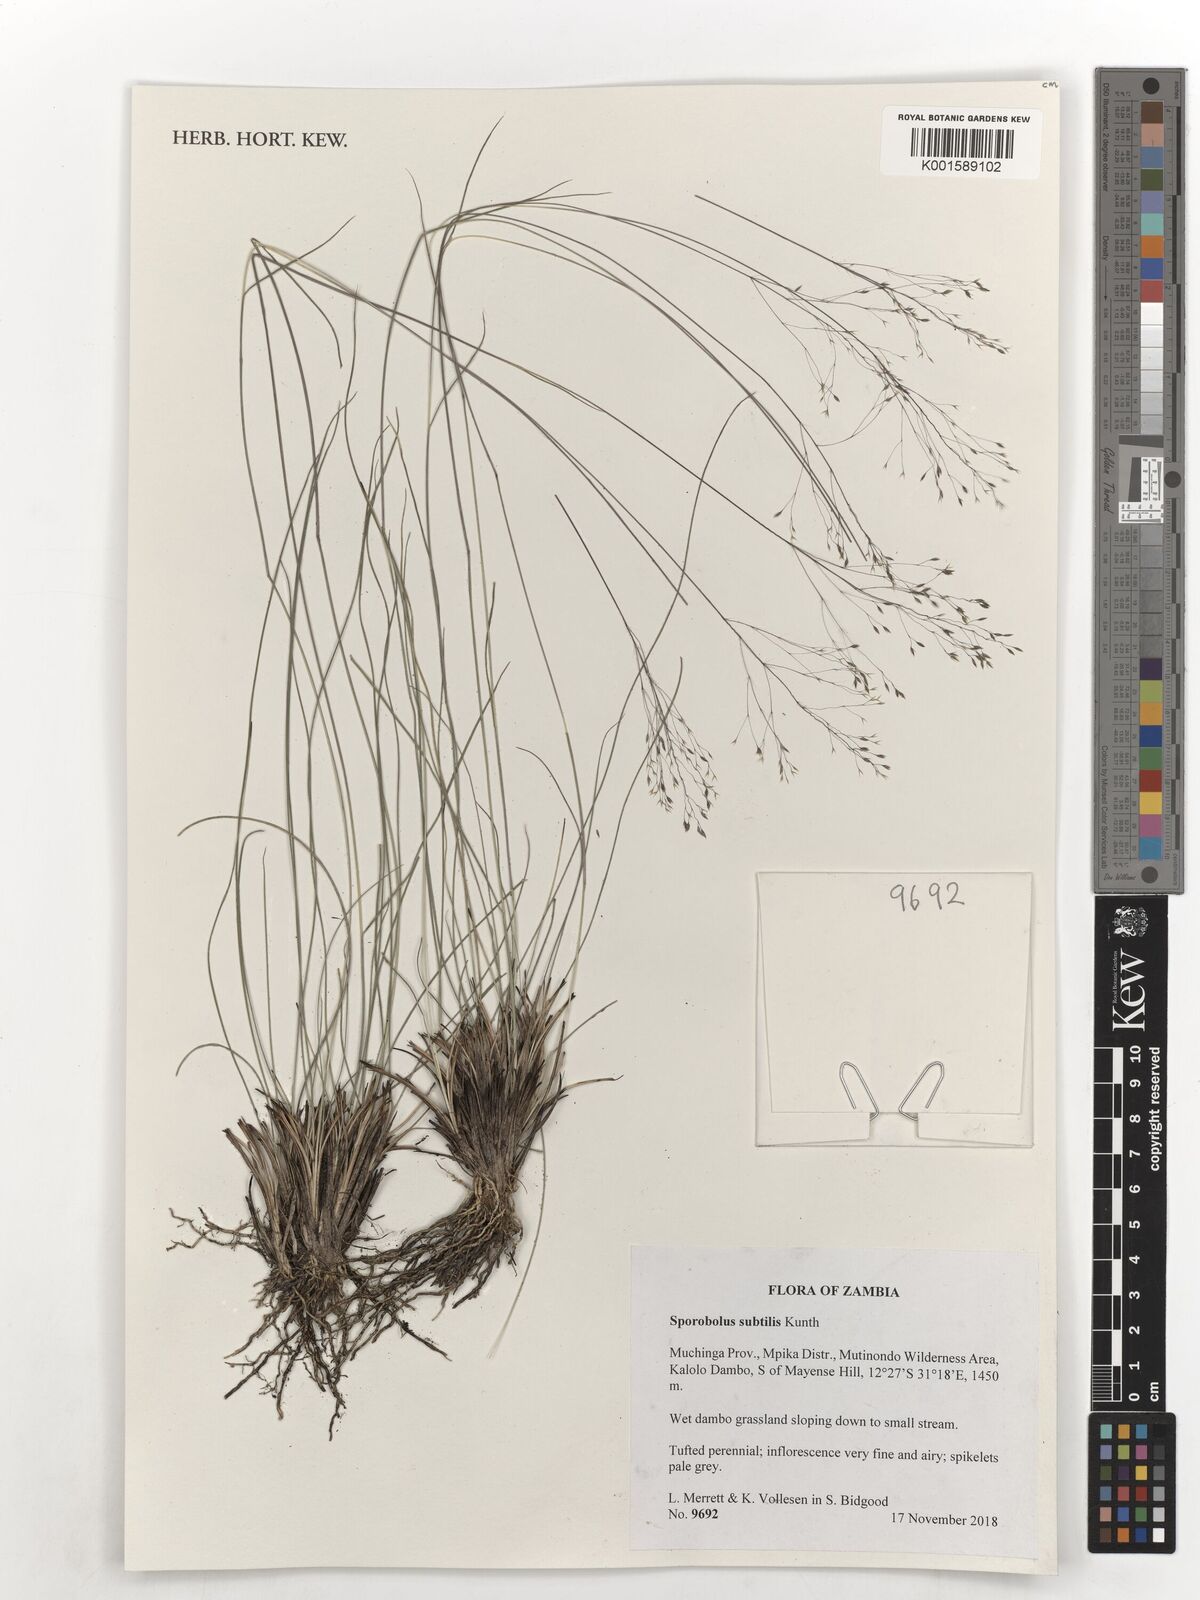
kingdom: Plantae
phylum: Tracheophyta
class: Liliopsida
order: Poales
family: Poaceae
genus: Sporobolus
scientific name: Sporobolus subtilis
